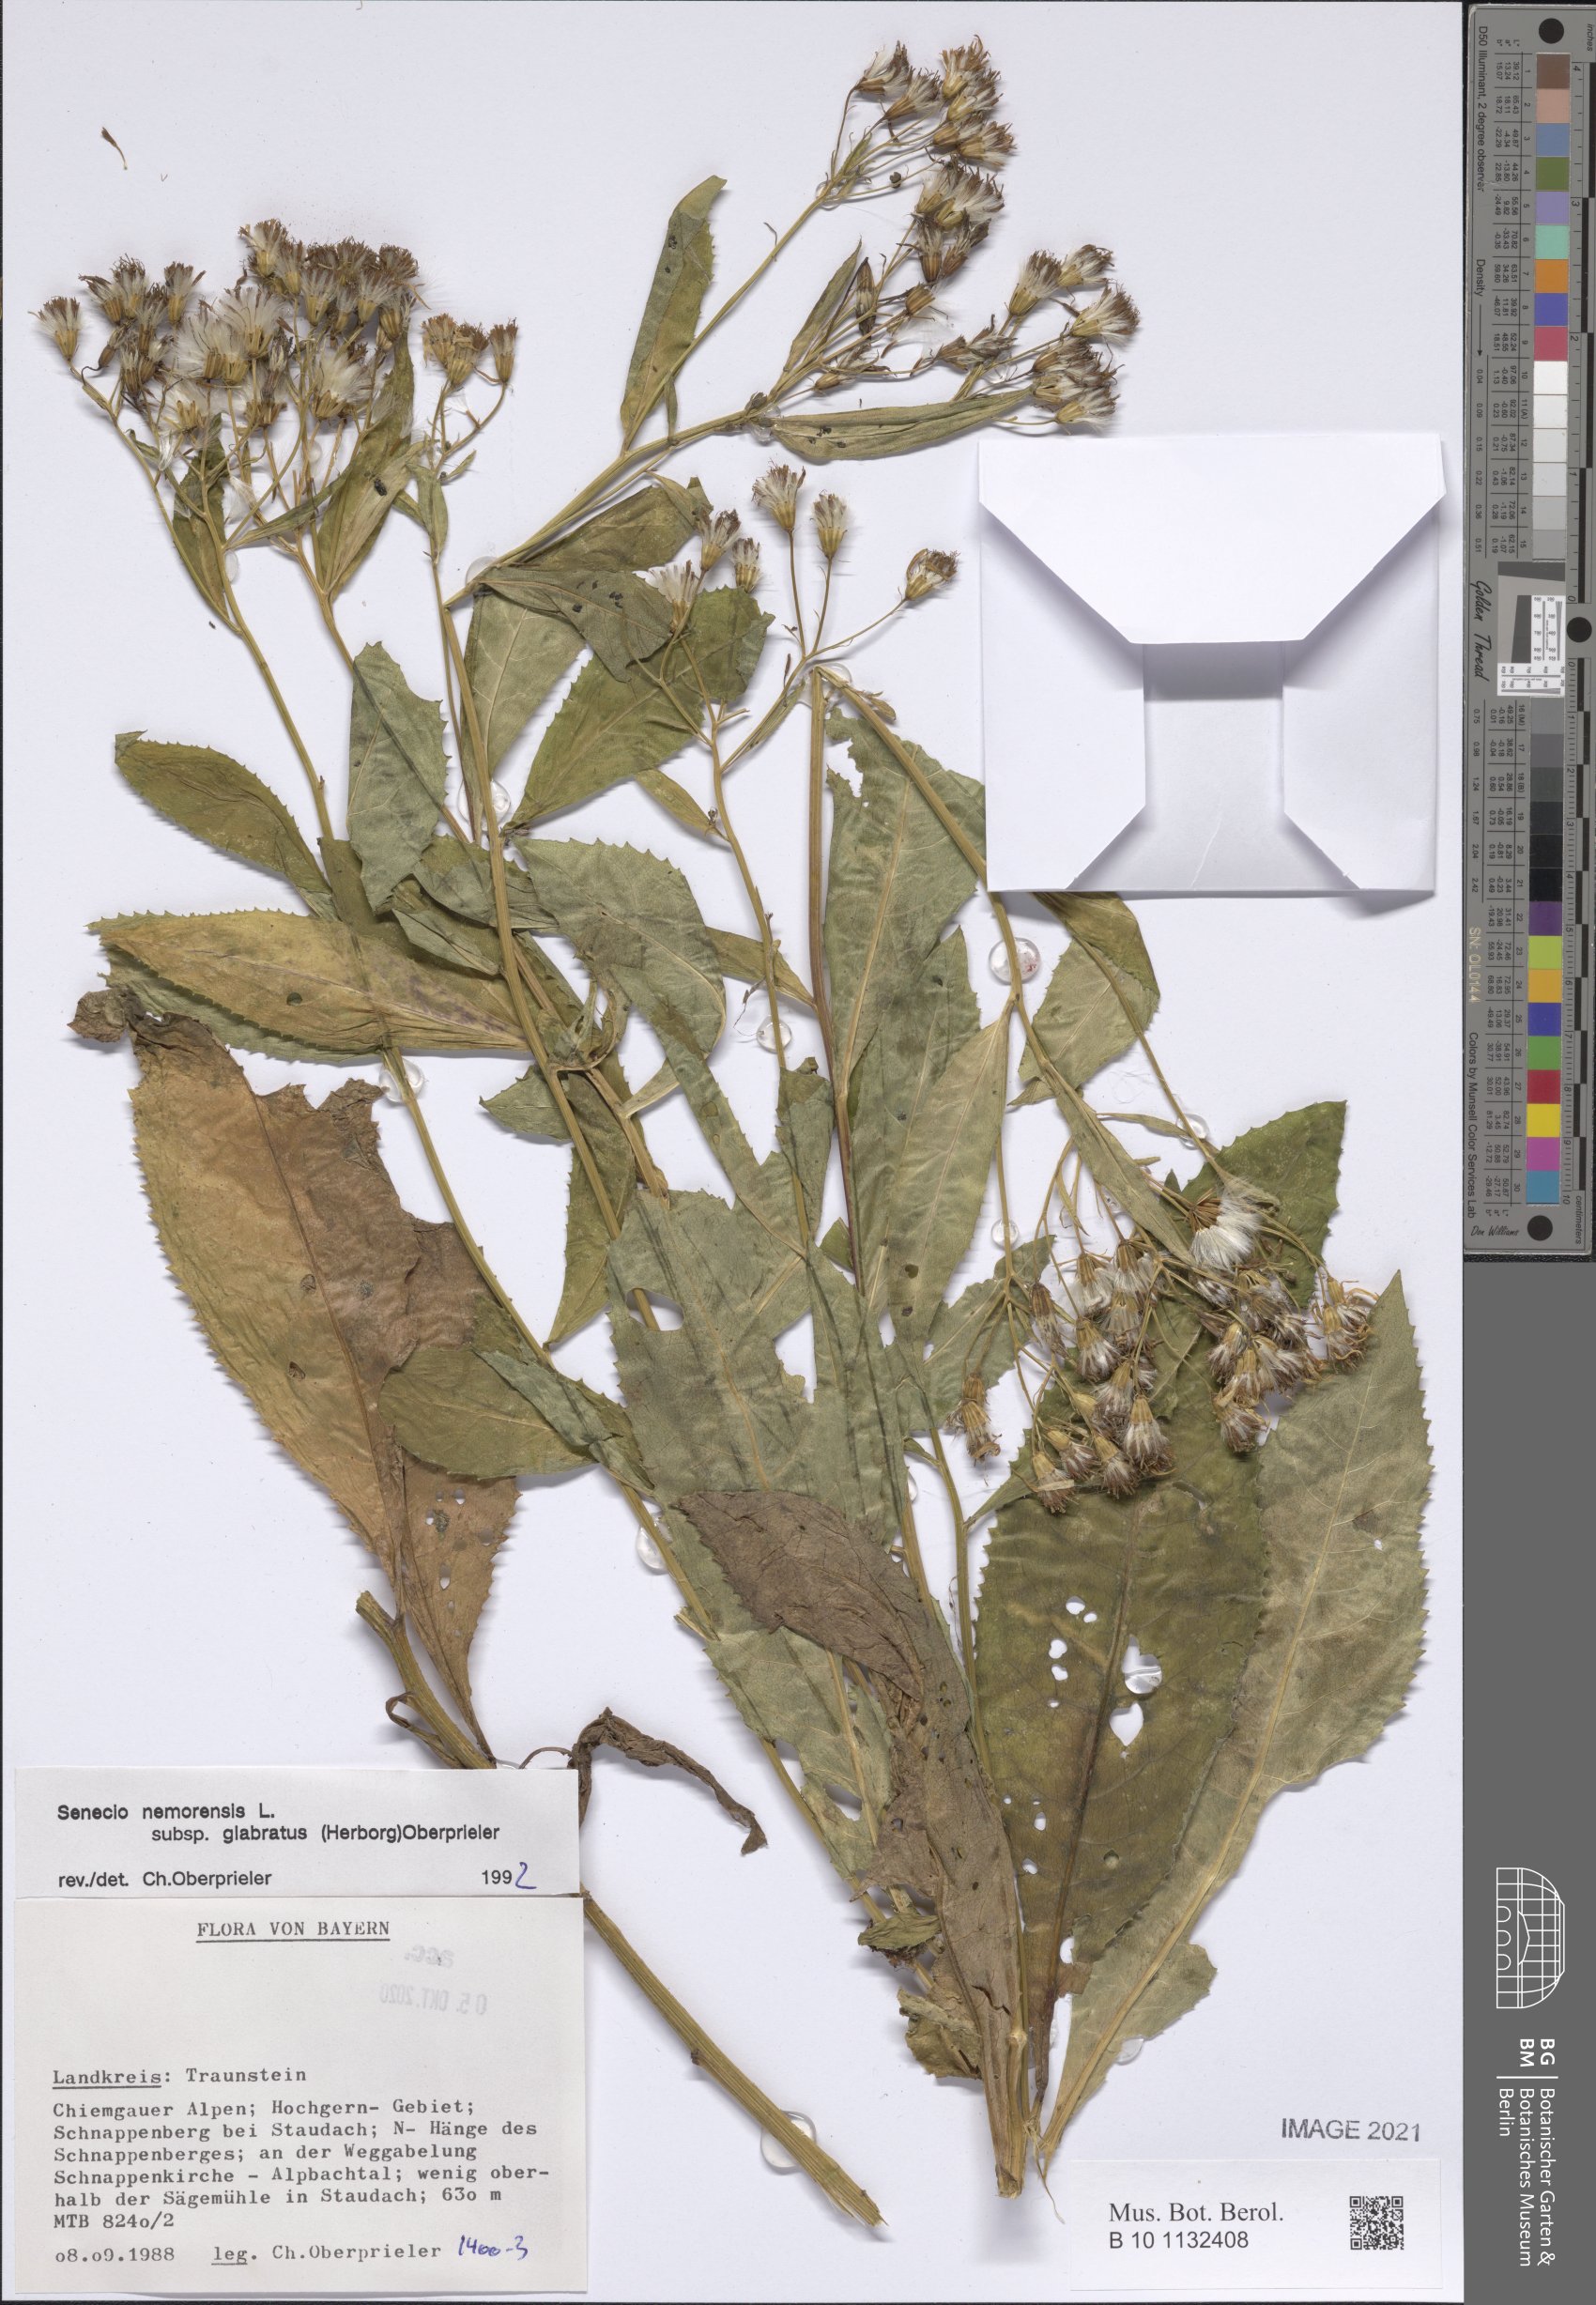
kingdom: Plantae
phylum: Tracheophyta
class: Magnoliopsida
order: Asterales
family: Asteraceae
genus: Senecio
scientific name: Senecio germanicus
